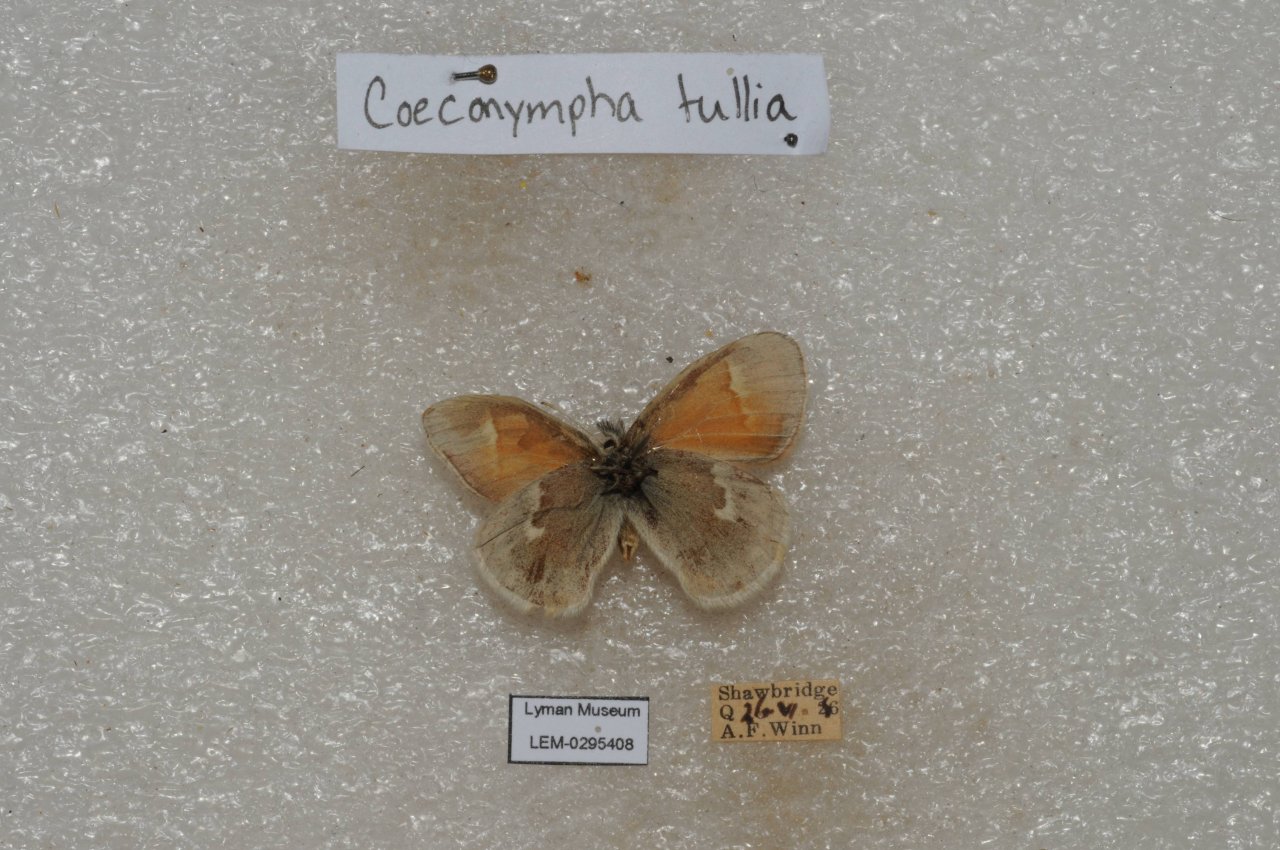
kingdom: Animalia
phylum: Arthropoda
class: Insecta
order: Lepidoptera
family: Nymphalidae
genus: Coenonympha
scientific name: Coenonympha tullia
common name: Large Heath
